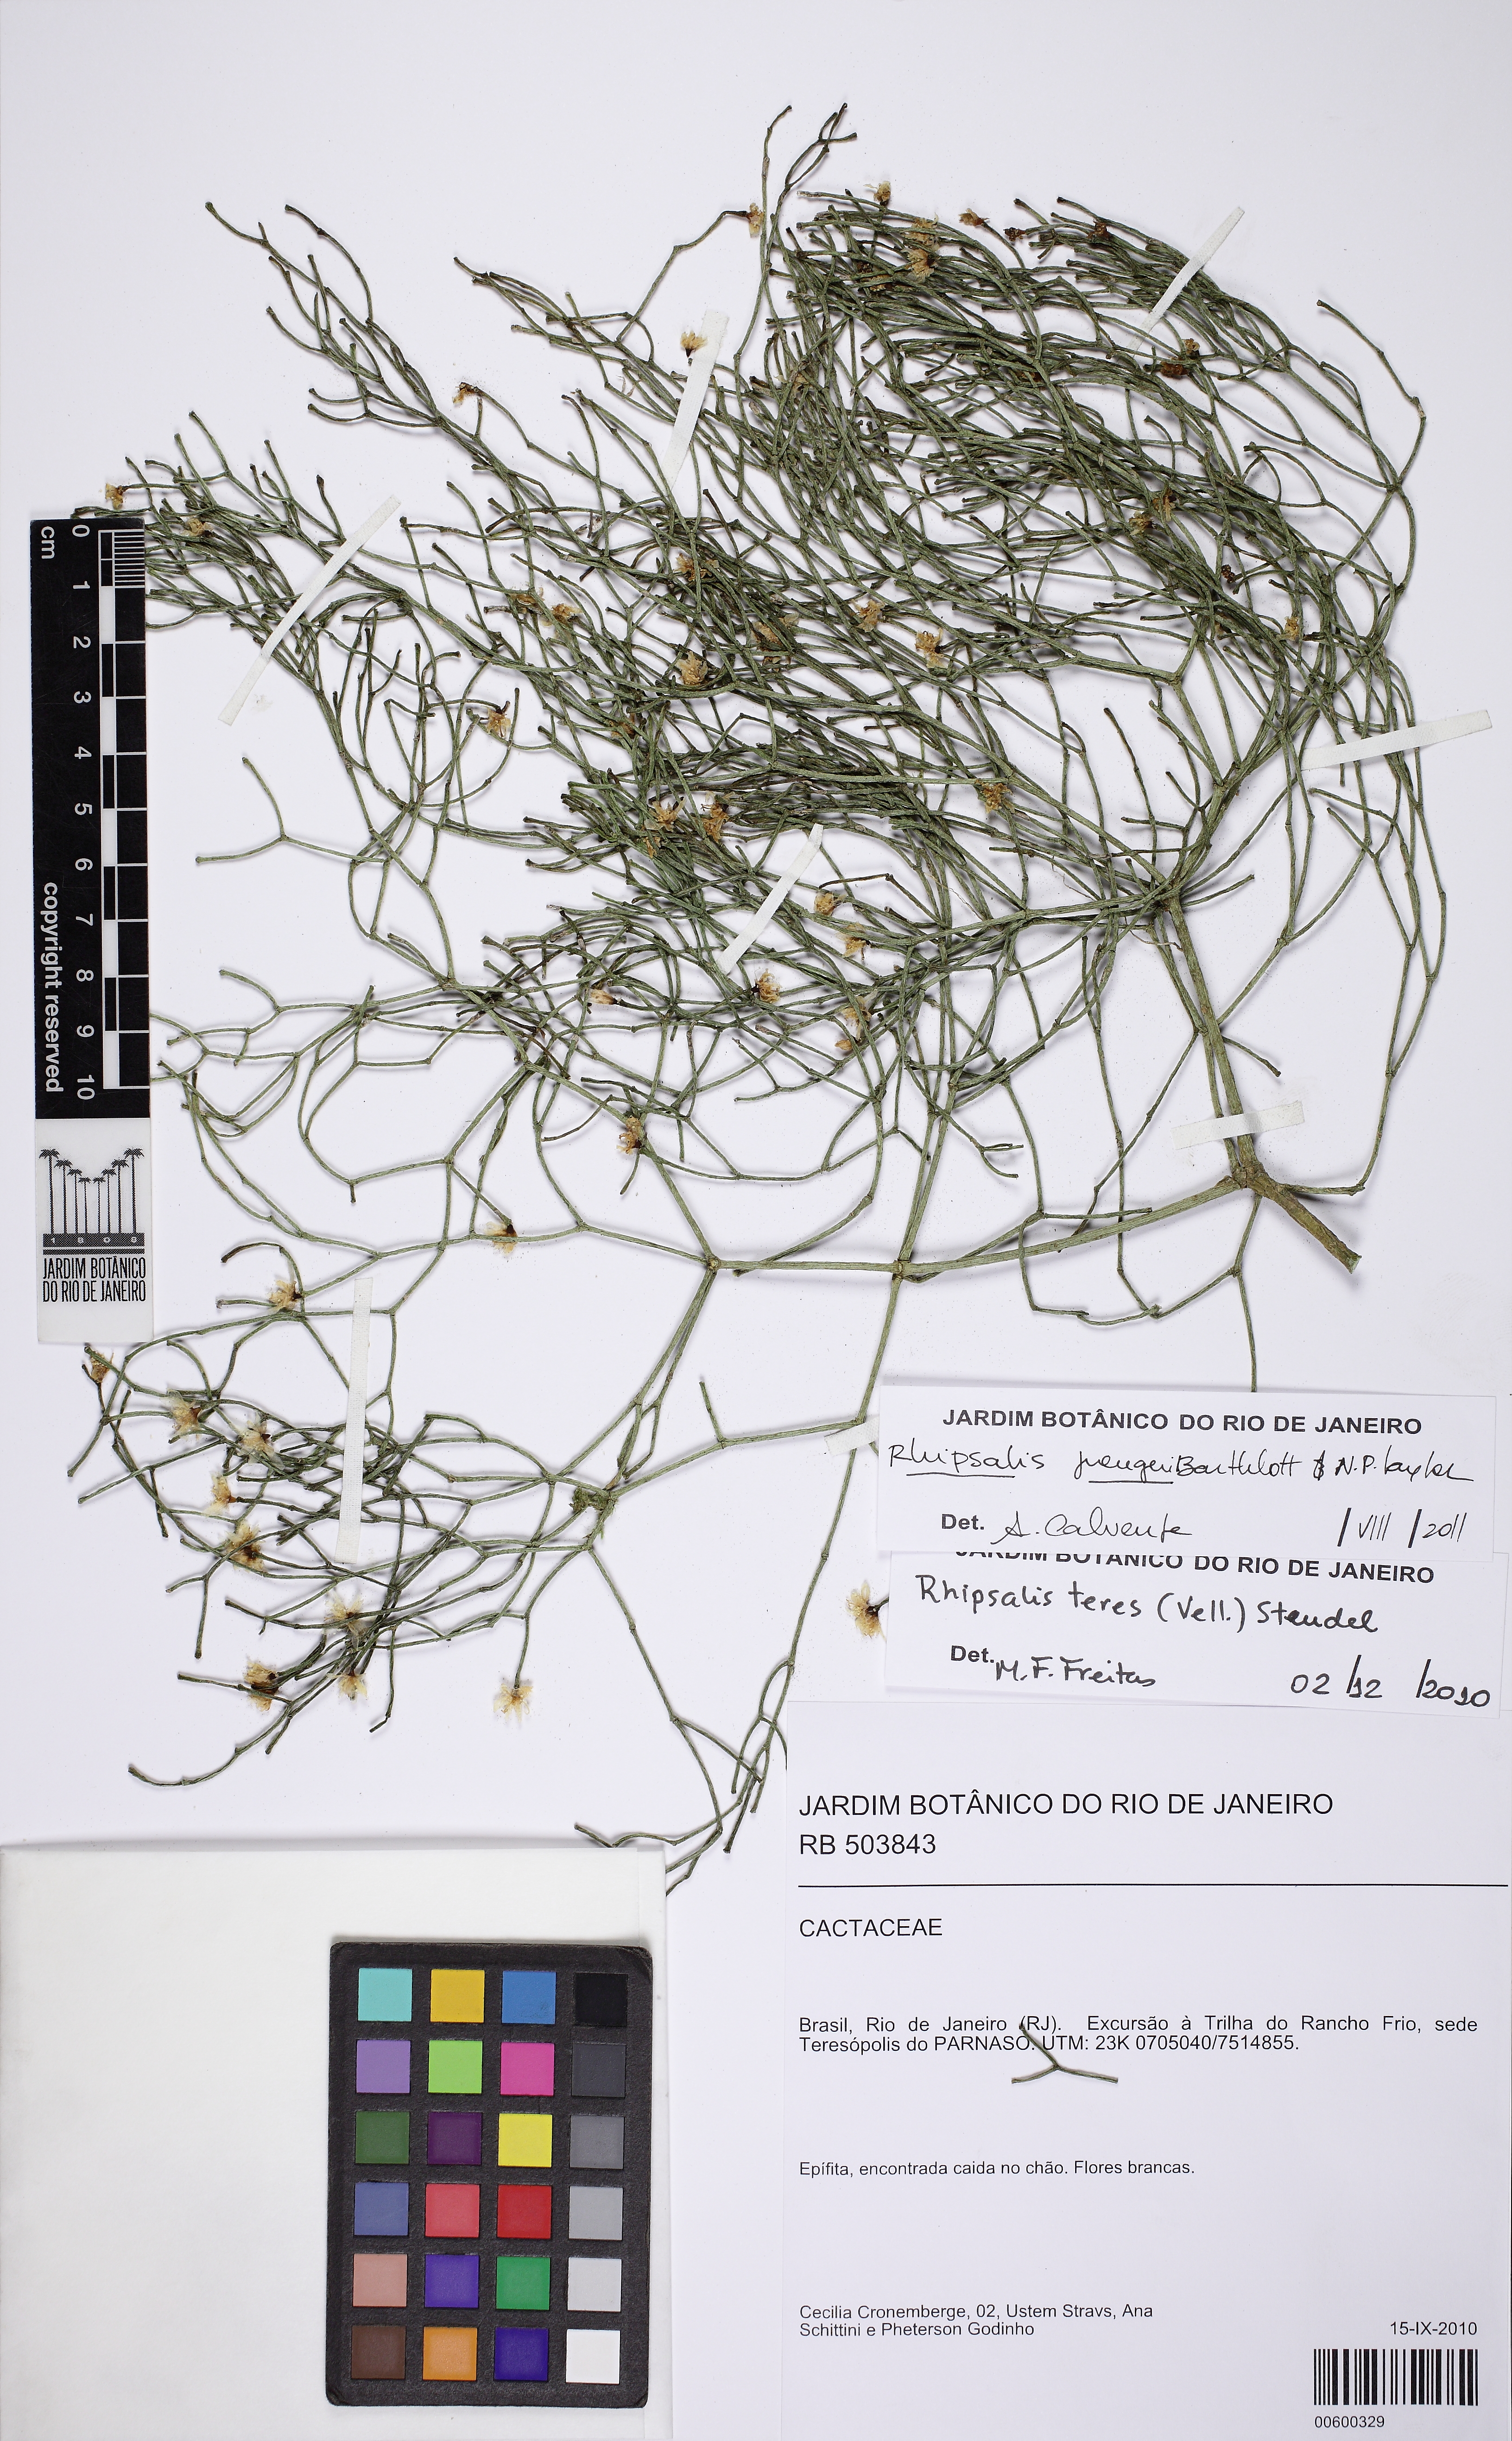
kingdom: Plantae
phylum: Tracheophyta
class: Magnoliopsida
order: Caryophyllales
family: Cactaceae
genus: Rhipsalis
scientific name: Rhipsalis juengeri
